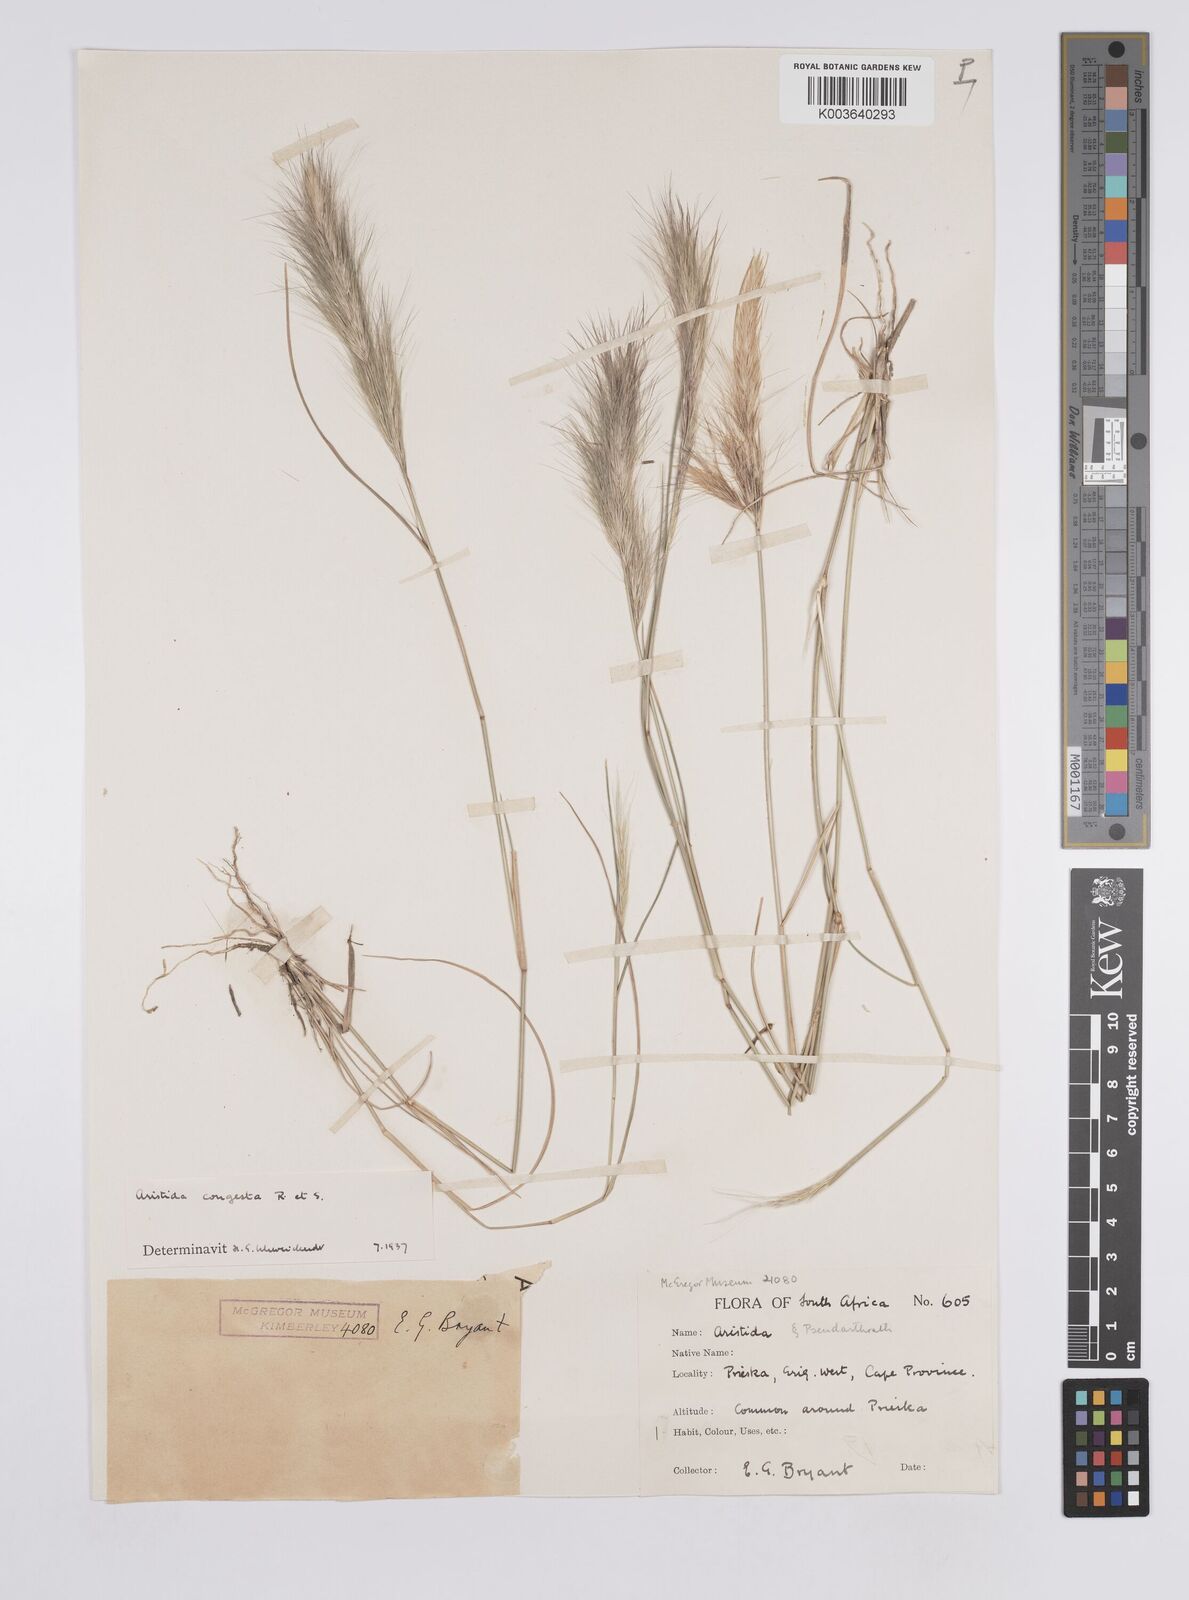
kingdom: Plantae
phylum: Tracheophyta
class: Liliopsida
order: Poales
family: Poaceae
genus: Aristida
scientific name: Aristida congesta
